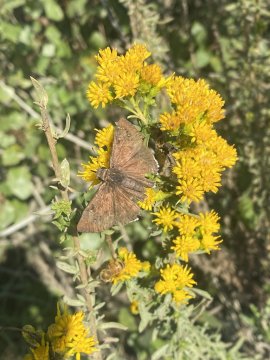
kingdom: Animalia
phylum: Arthropoda
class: Insecta
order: Lepidoptera
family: Hesperiidae
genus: Erynnis
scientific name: Erynnis funeralis
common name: Funereal Duskywing
